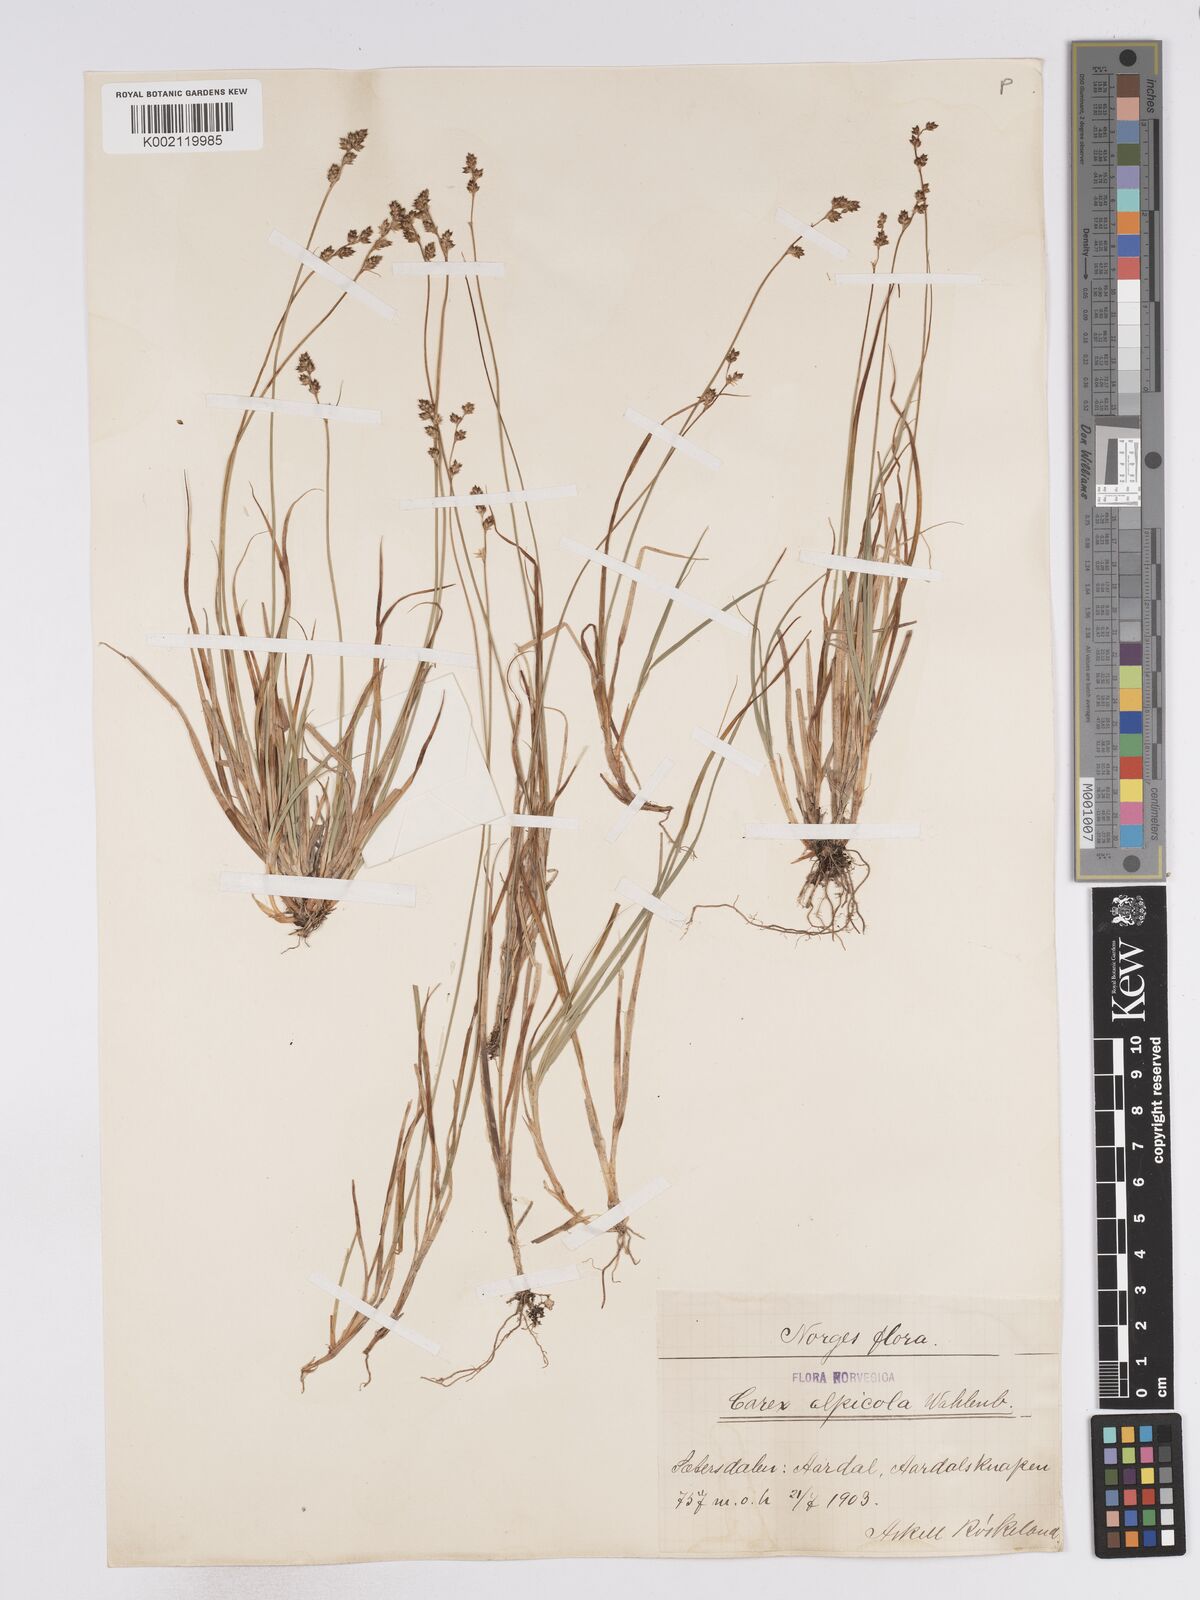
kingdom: Plantae
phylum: Tracheophyta
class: Liliopsida
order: Poales
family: Cyperaceae
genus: Carex
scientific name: Carex brunnescens
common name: Brown sedge
